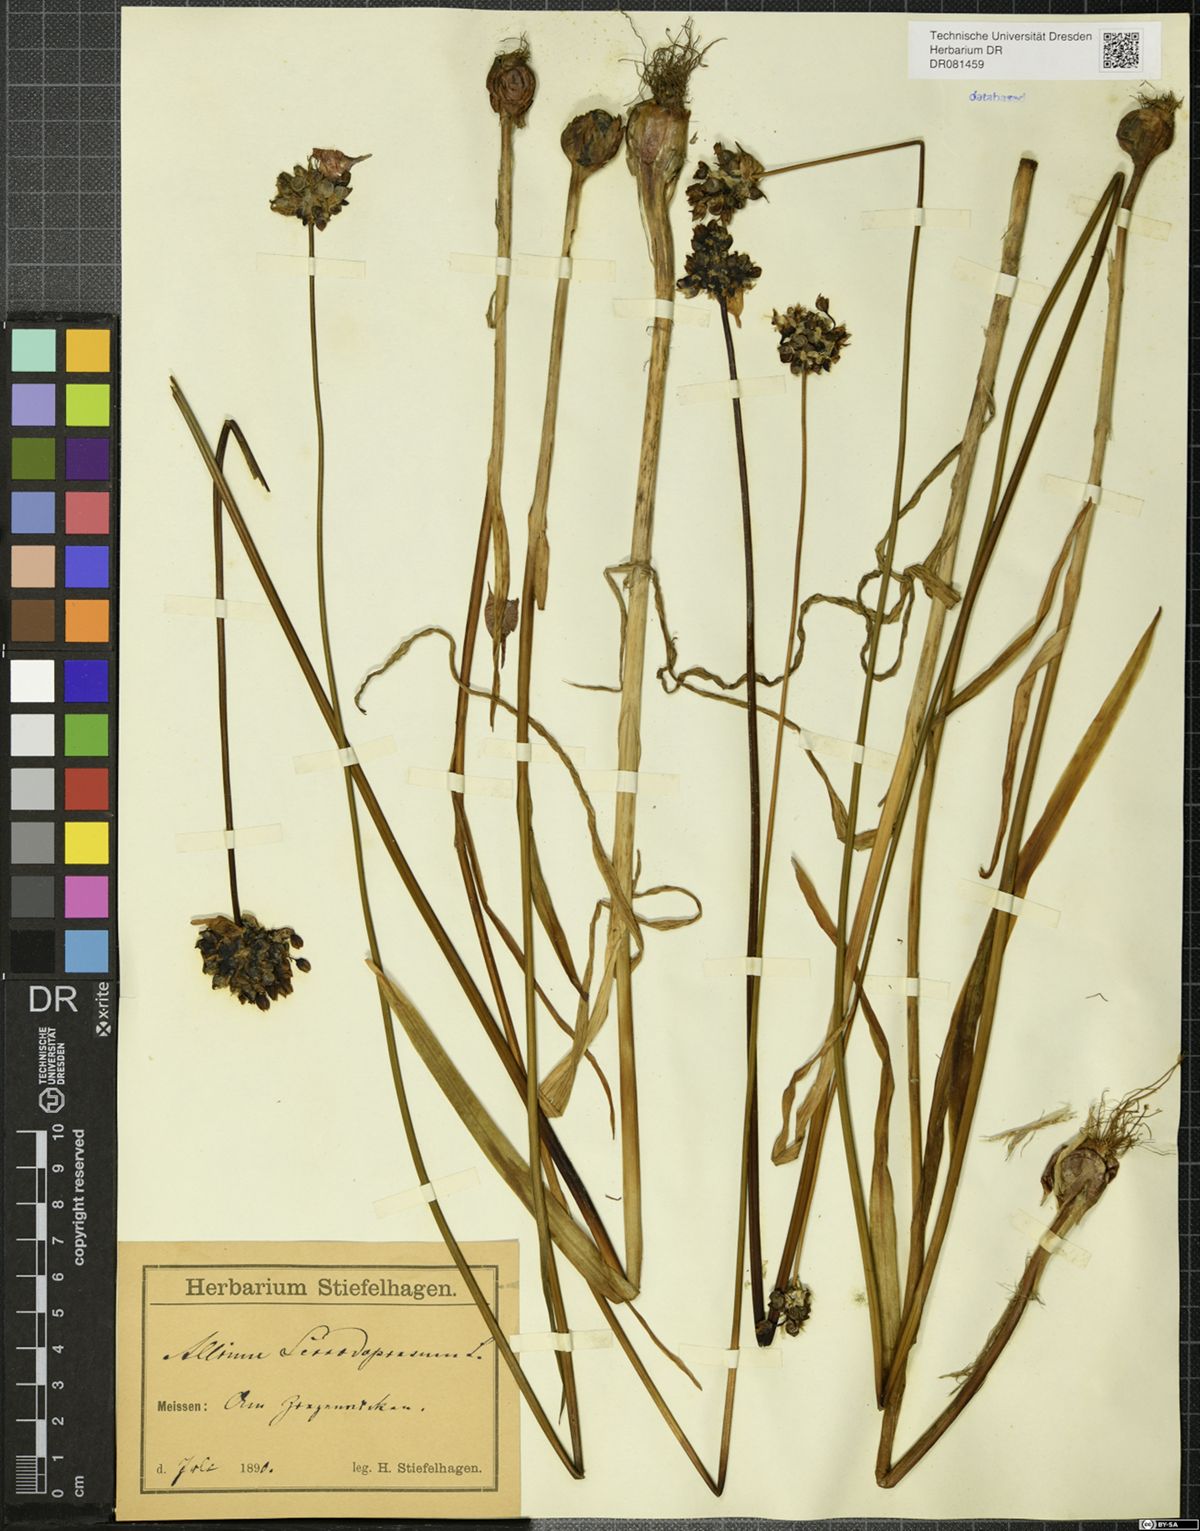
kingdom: Plantae
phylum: Tracheophyta
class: Liliopsida
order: Asparagales
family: Amaryllidaceae
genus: Allium
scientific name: Allium scorodoprasum
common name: Sand leek
